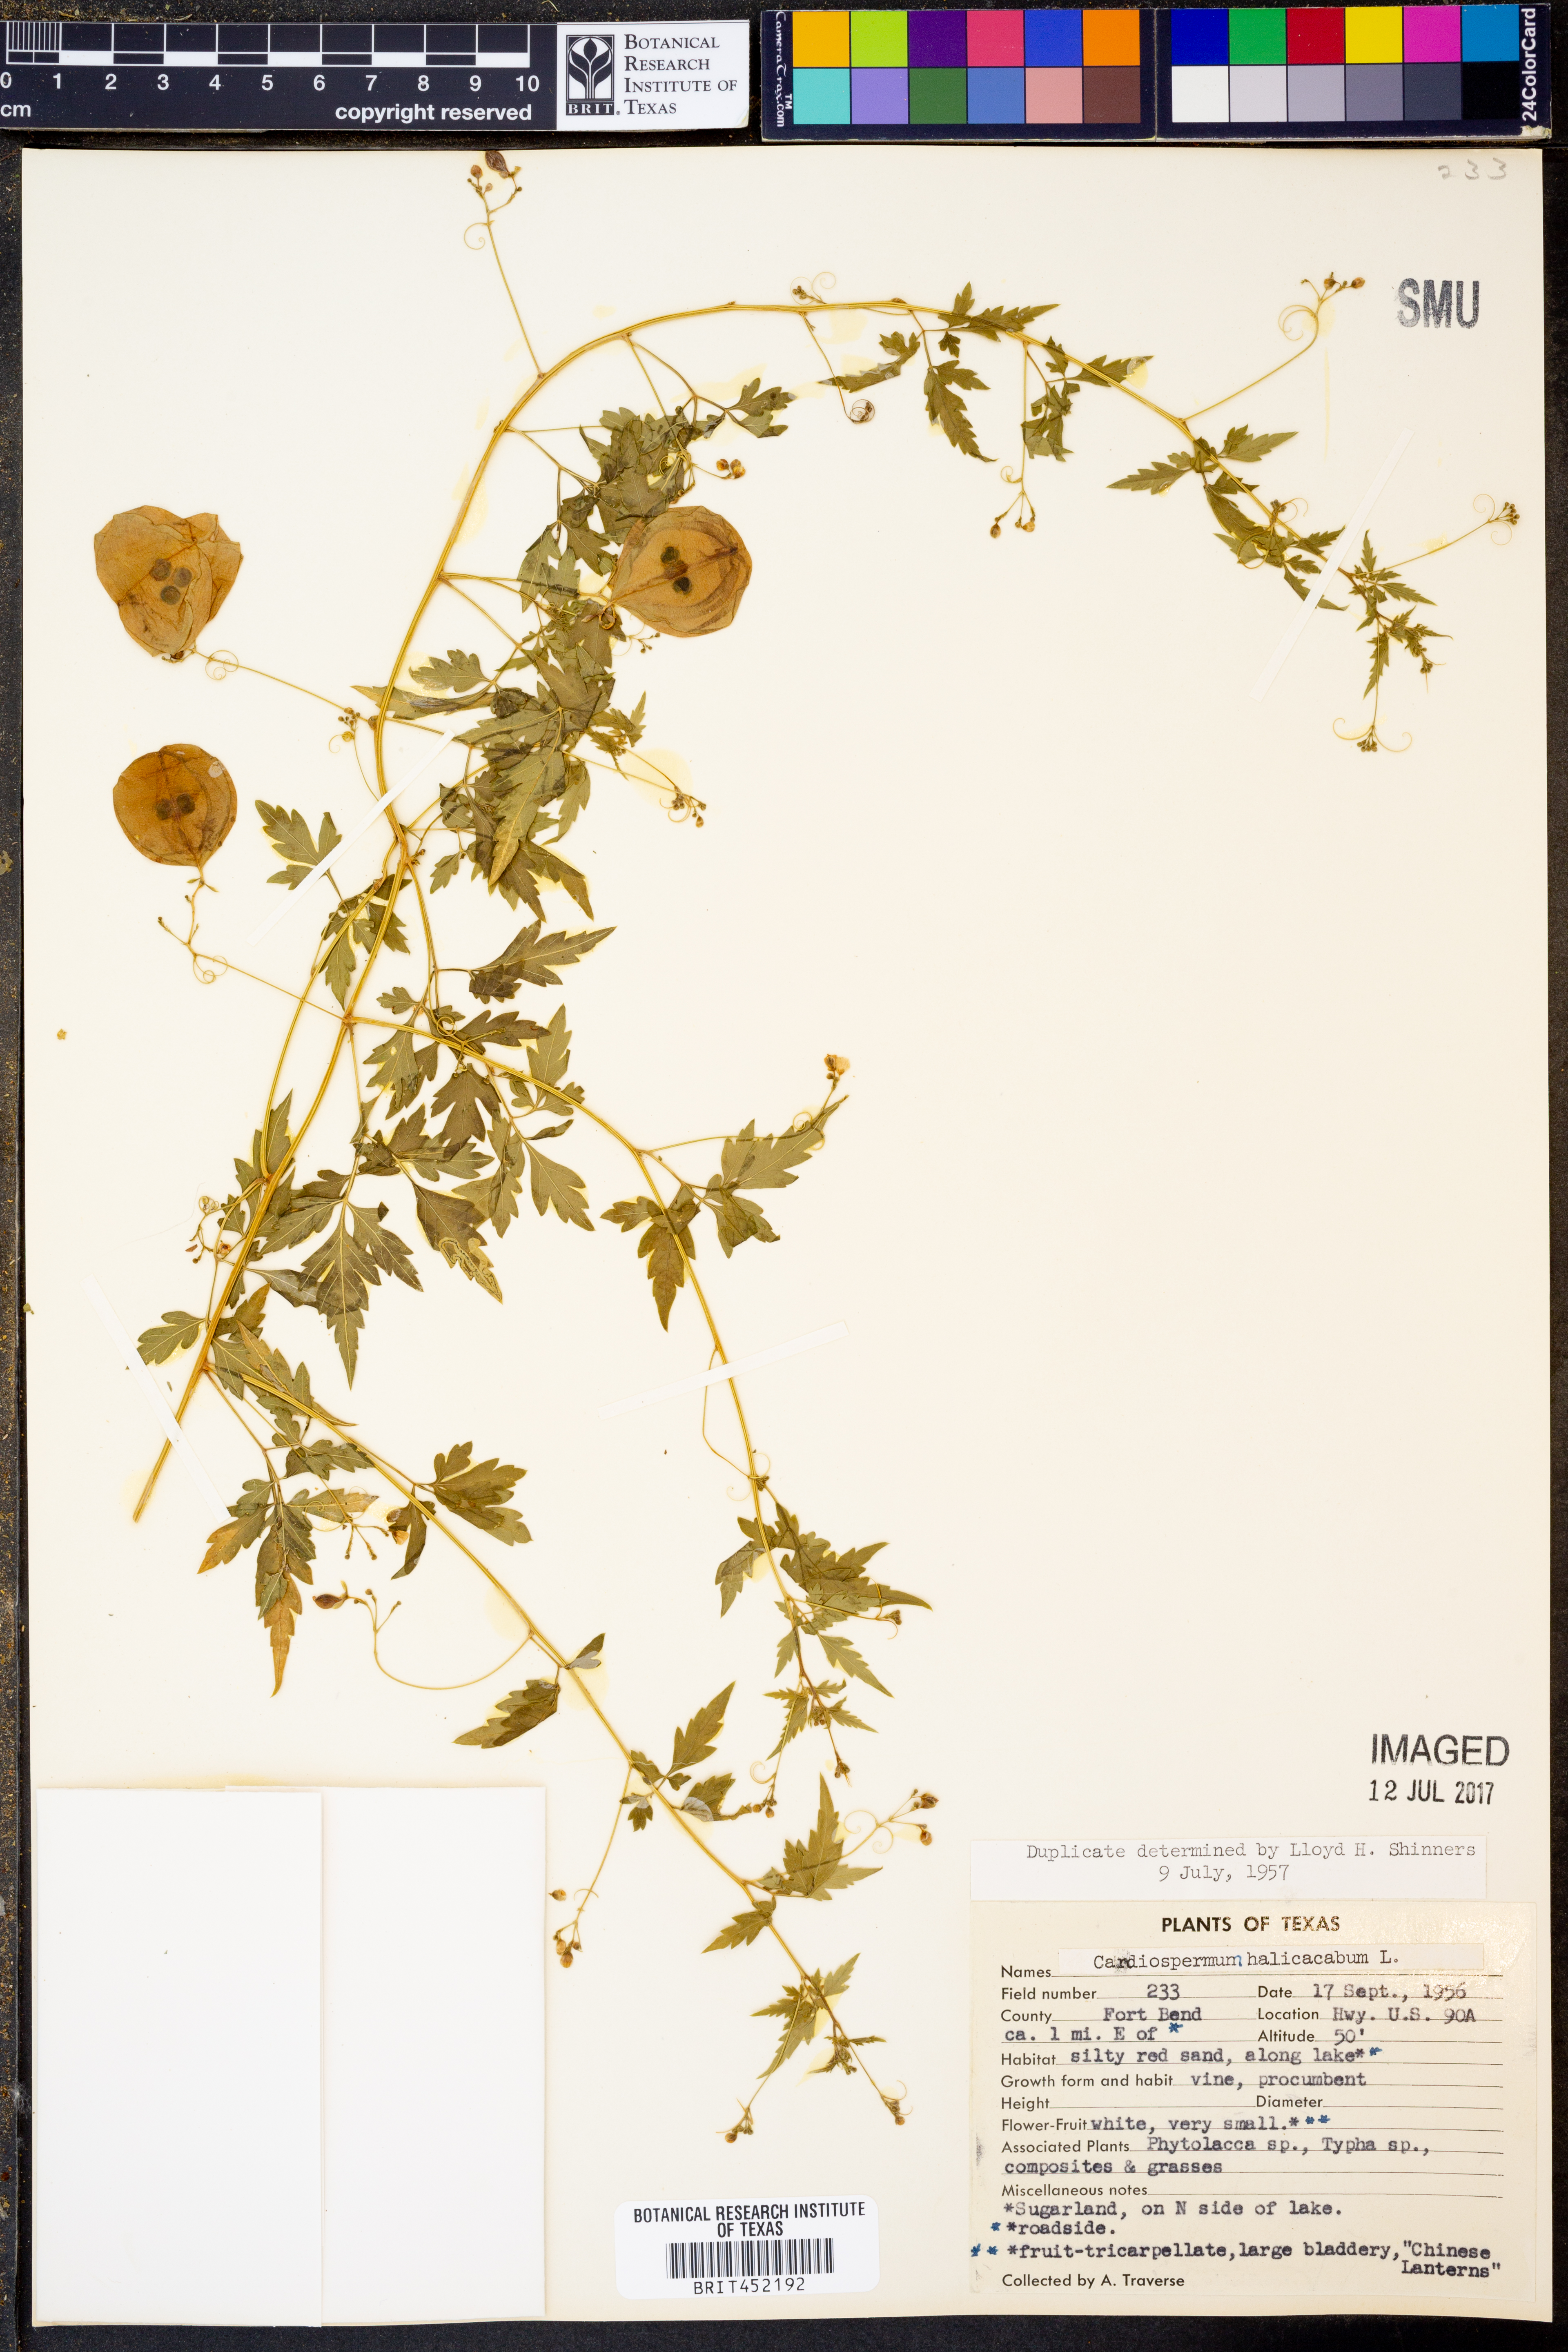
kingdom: Plantae
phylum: Tracheophyta
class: Magnoliopsida
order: Sapindales
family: Sapindaceae
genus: Cardiospermum
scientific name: Cardiospermum halicacabum
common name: Balloon vine
